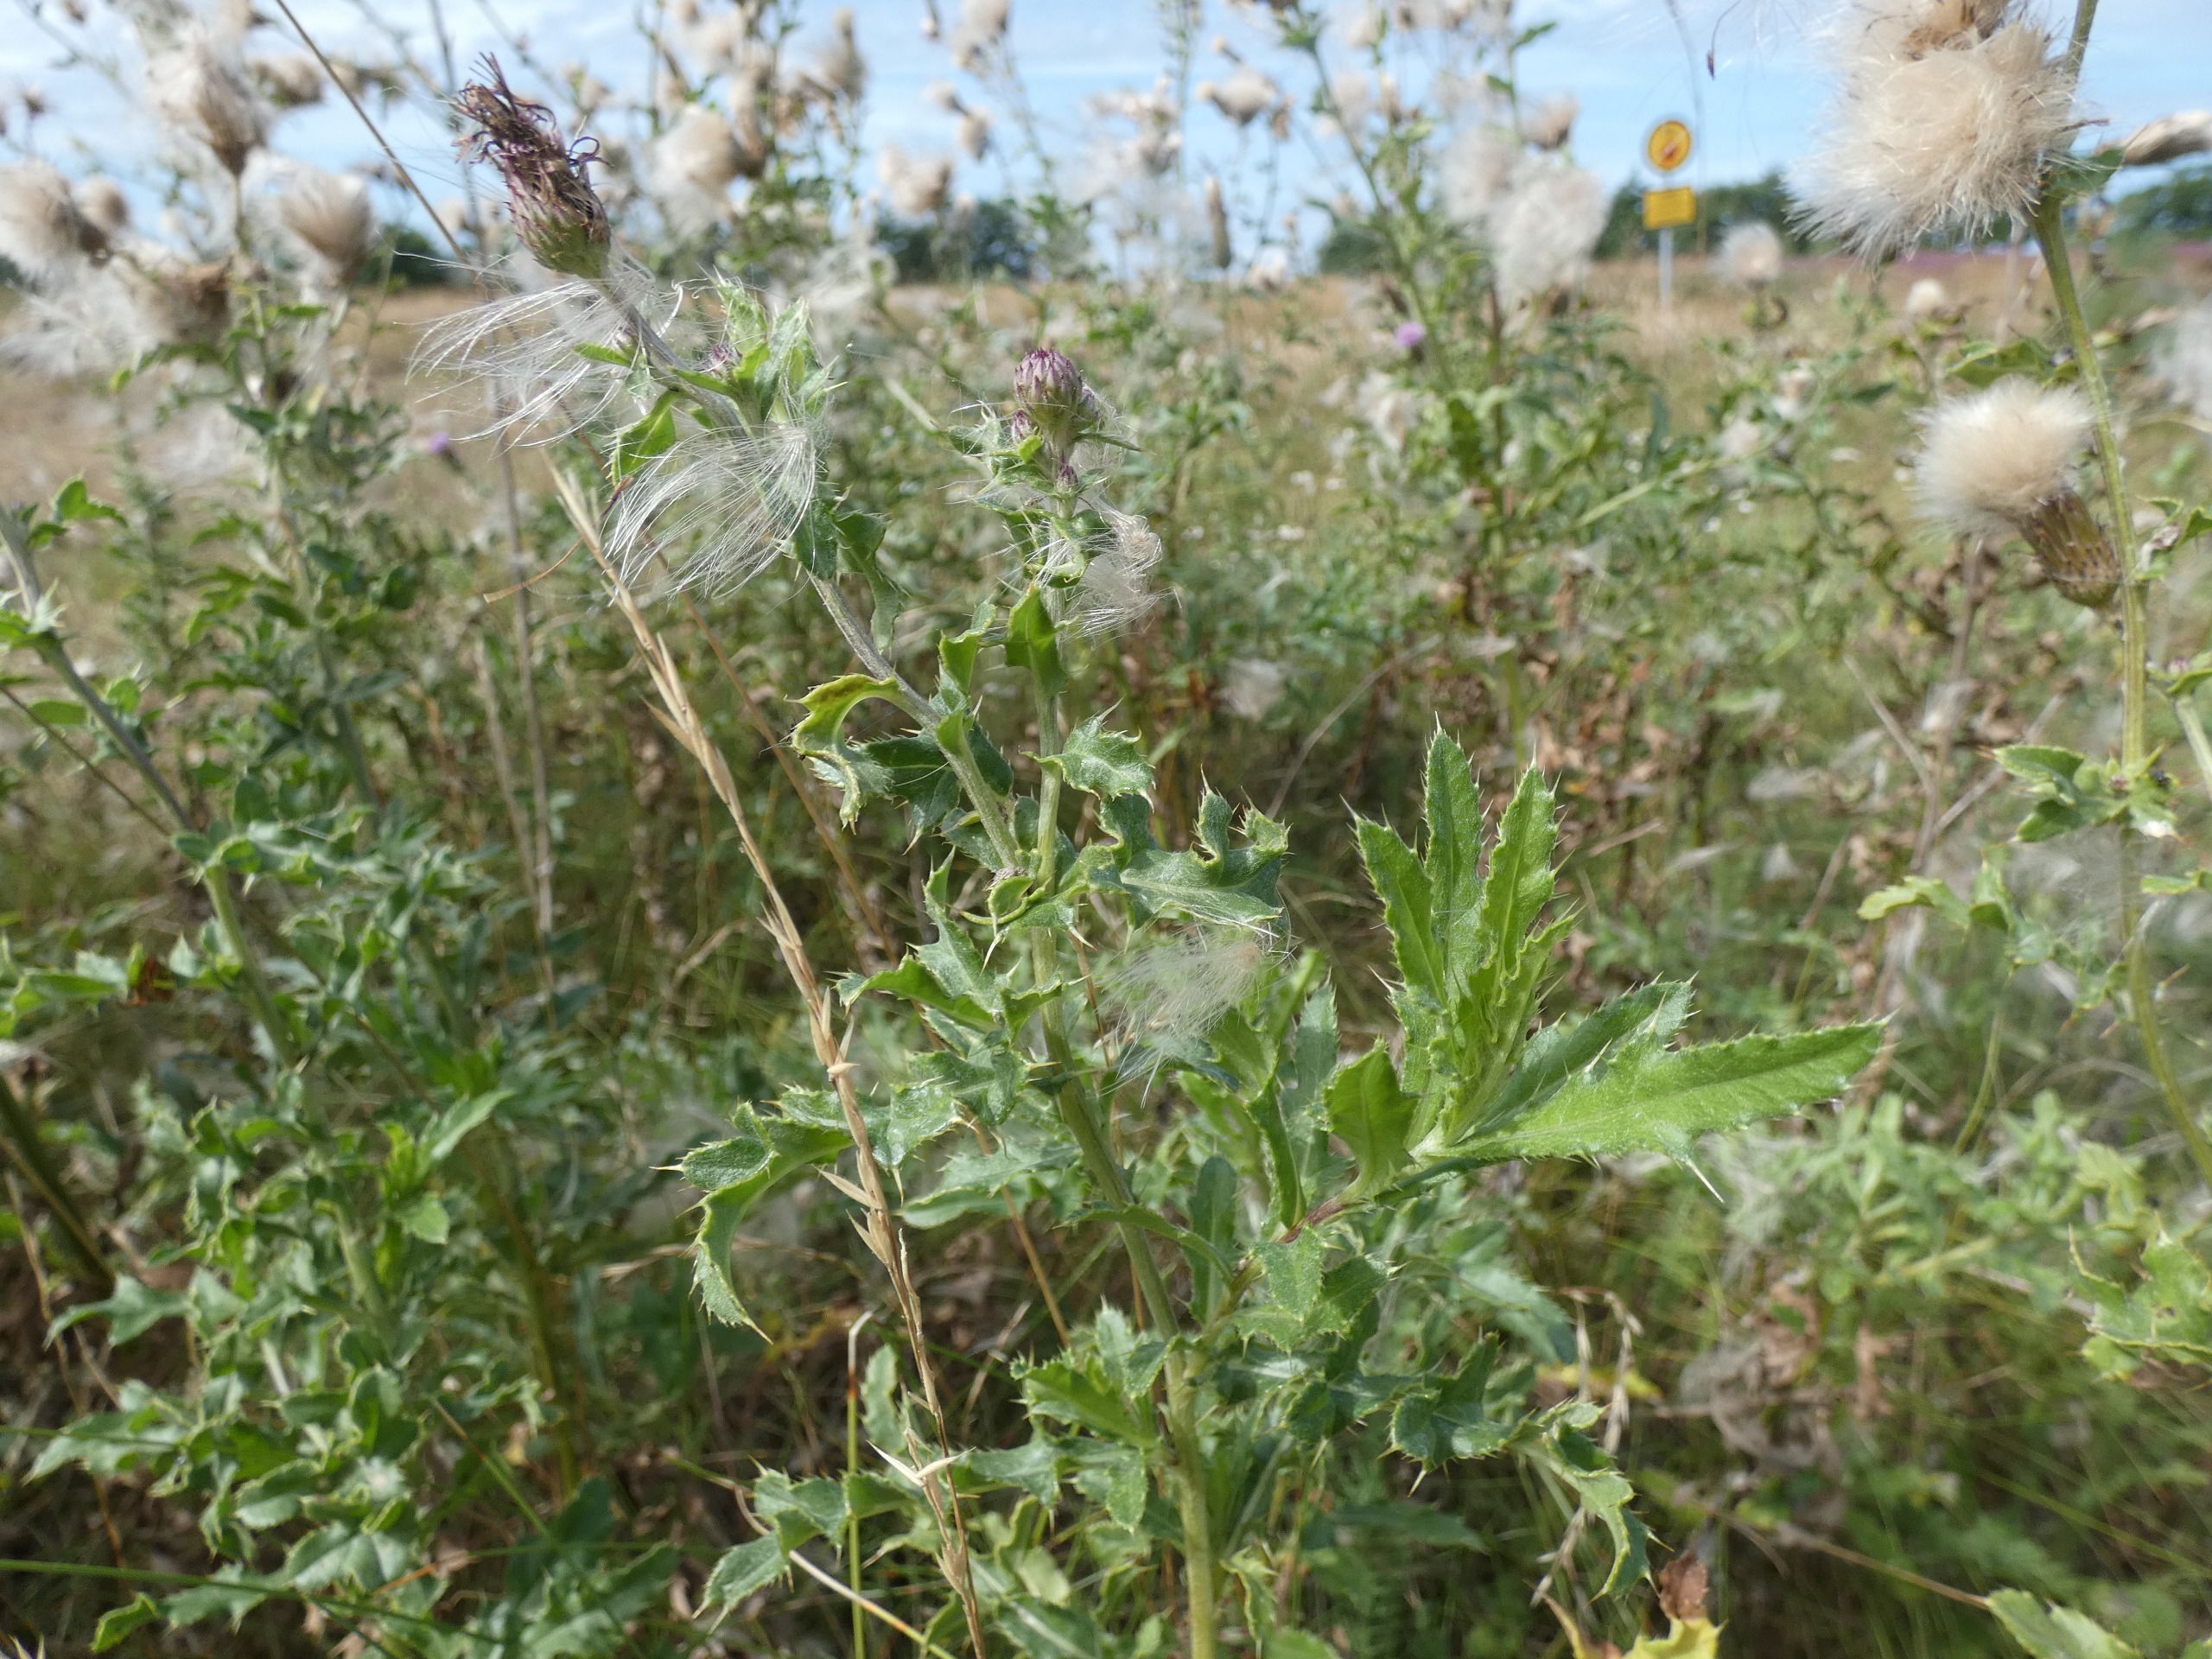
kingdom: Plantae
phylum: Tracheophyta
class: Magnoliopsida
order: Asterales
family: Asteraceae
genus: Cirsium
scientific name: Cirsium arvense
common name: Ager-tidsel
